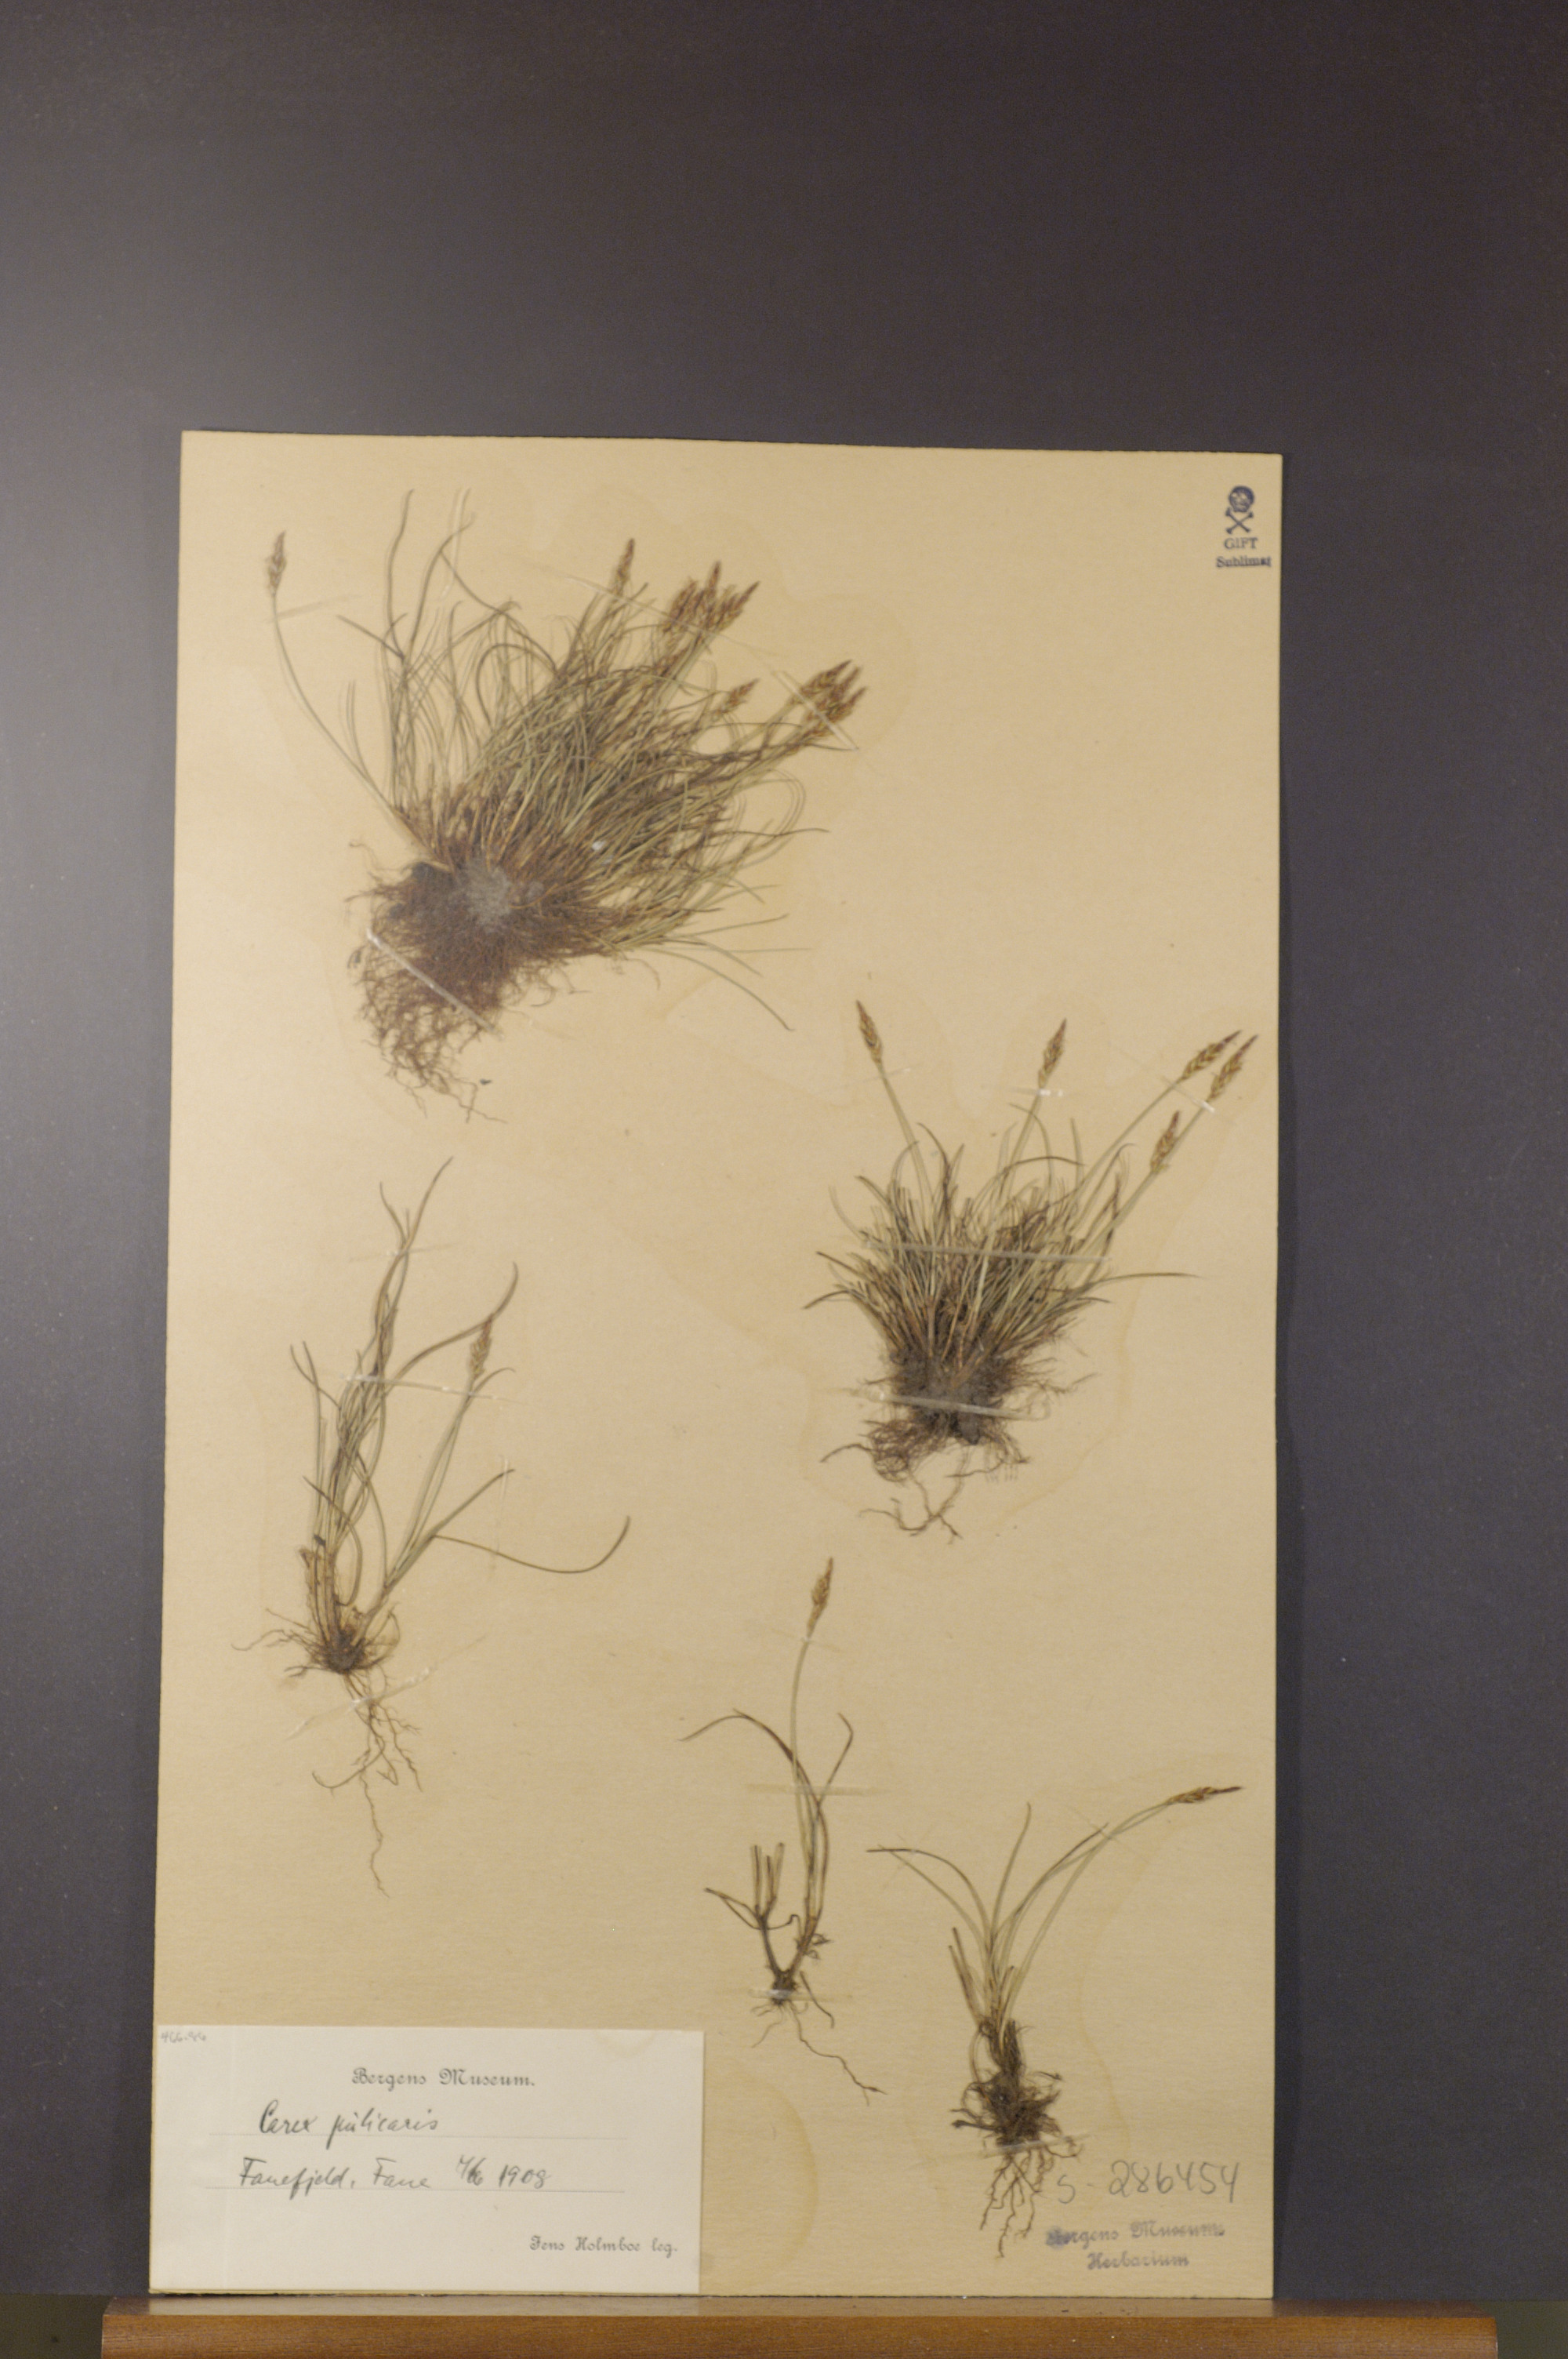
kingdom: Plantae
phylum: Tracheophyta
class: Liliopsida
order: Poales
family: Cyperaceae
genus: Carex
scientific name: Carex pulicaris
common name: Flea sedge
